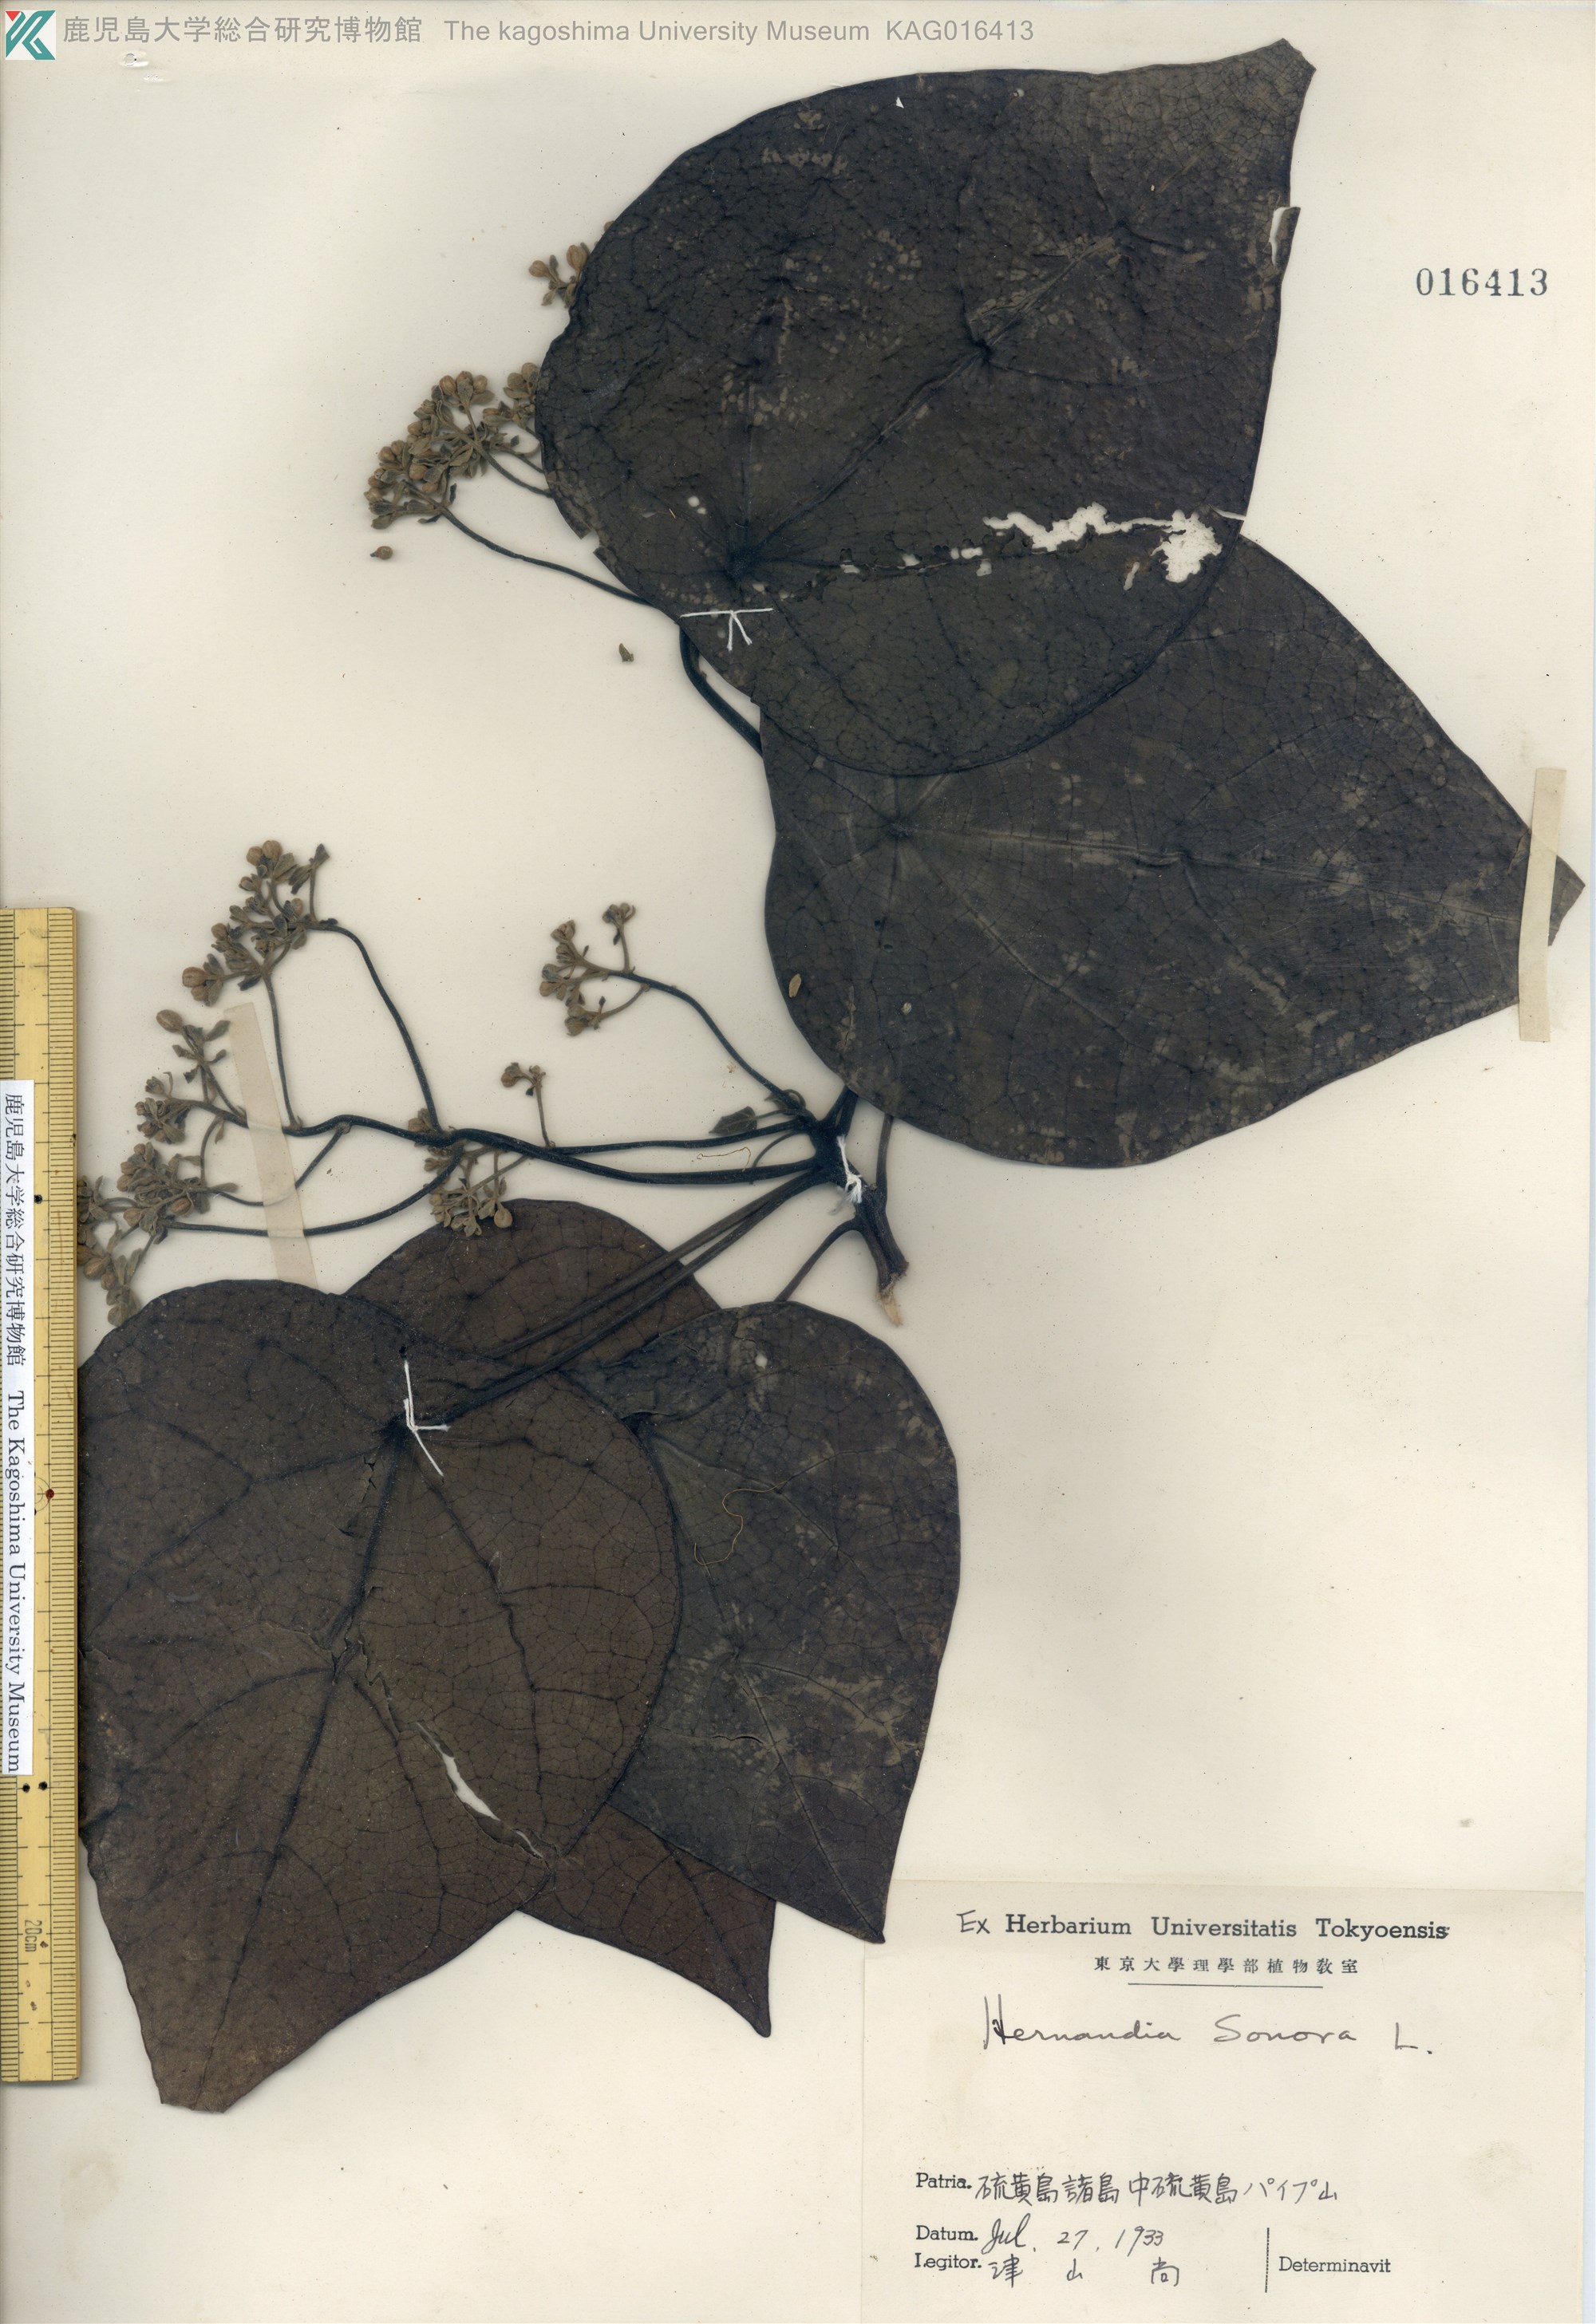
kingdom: Plantae
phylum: Tracheophyta
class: Magnoliopsida
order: Laurales
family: Hernandiaceae
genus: Hernandia
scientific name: Hernandia nymphaeifolia
